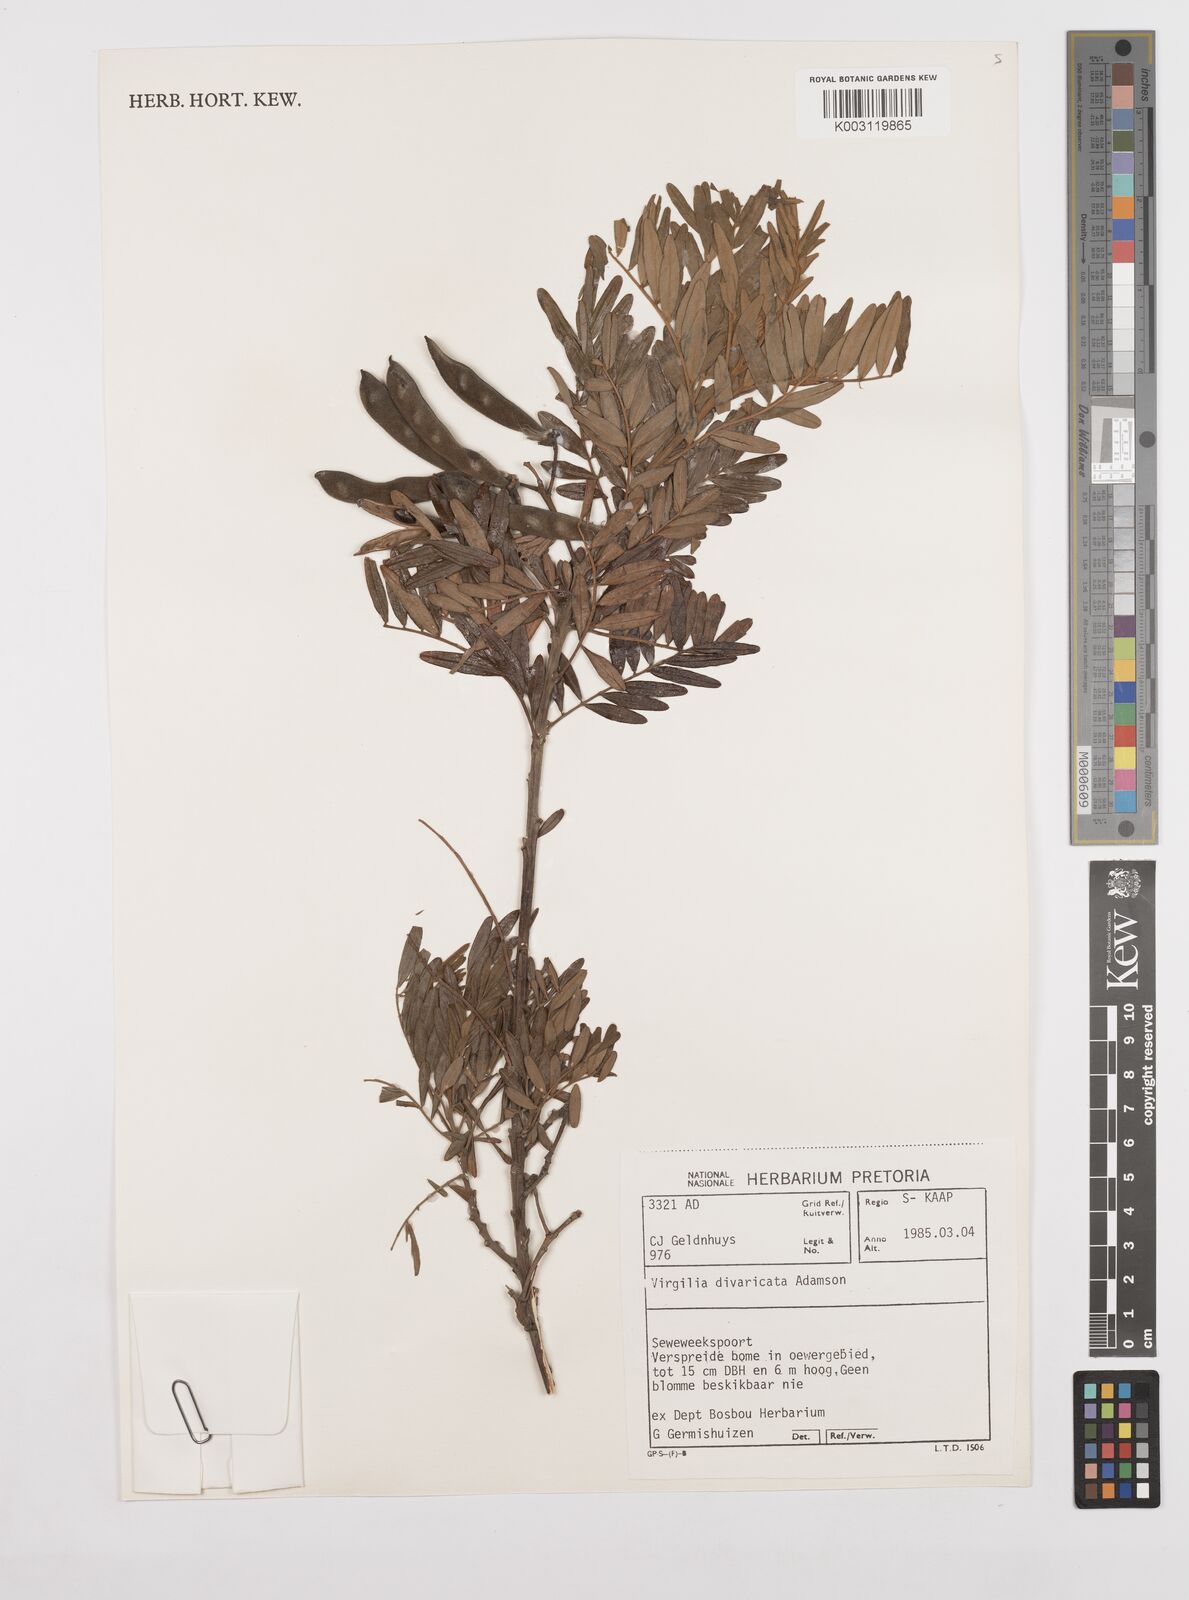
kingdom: Plantae
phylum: Tracheophyta
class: Magnoliopsida
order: Fabales
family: Fabaceae
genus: Virgilia
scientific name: Virgilia divaricata
